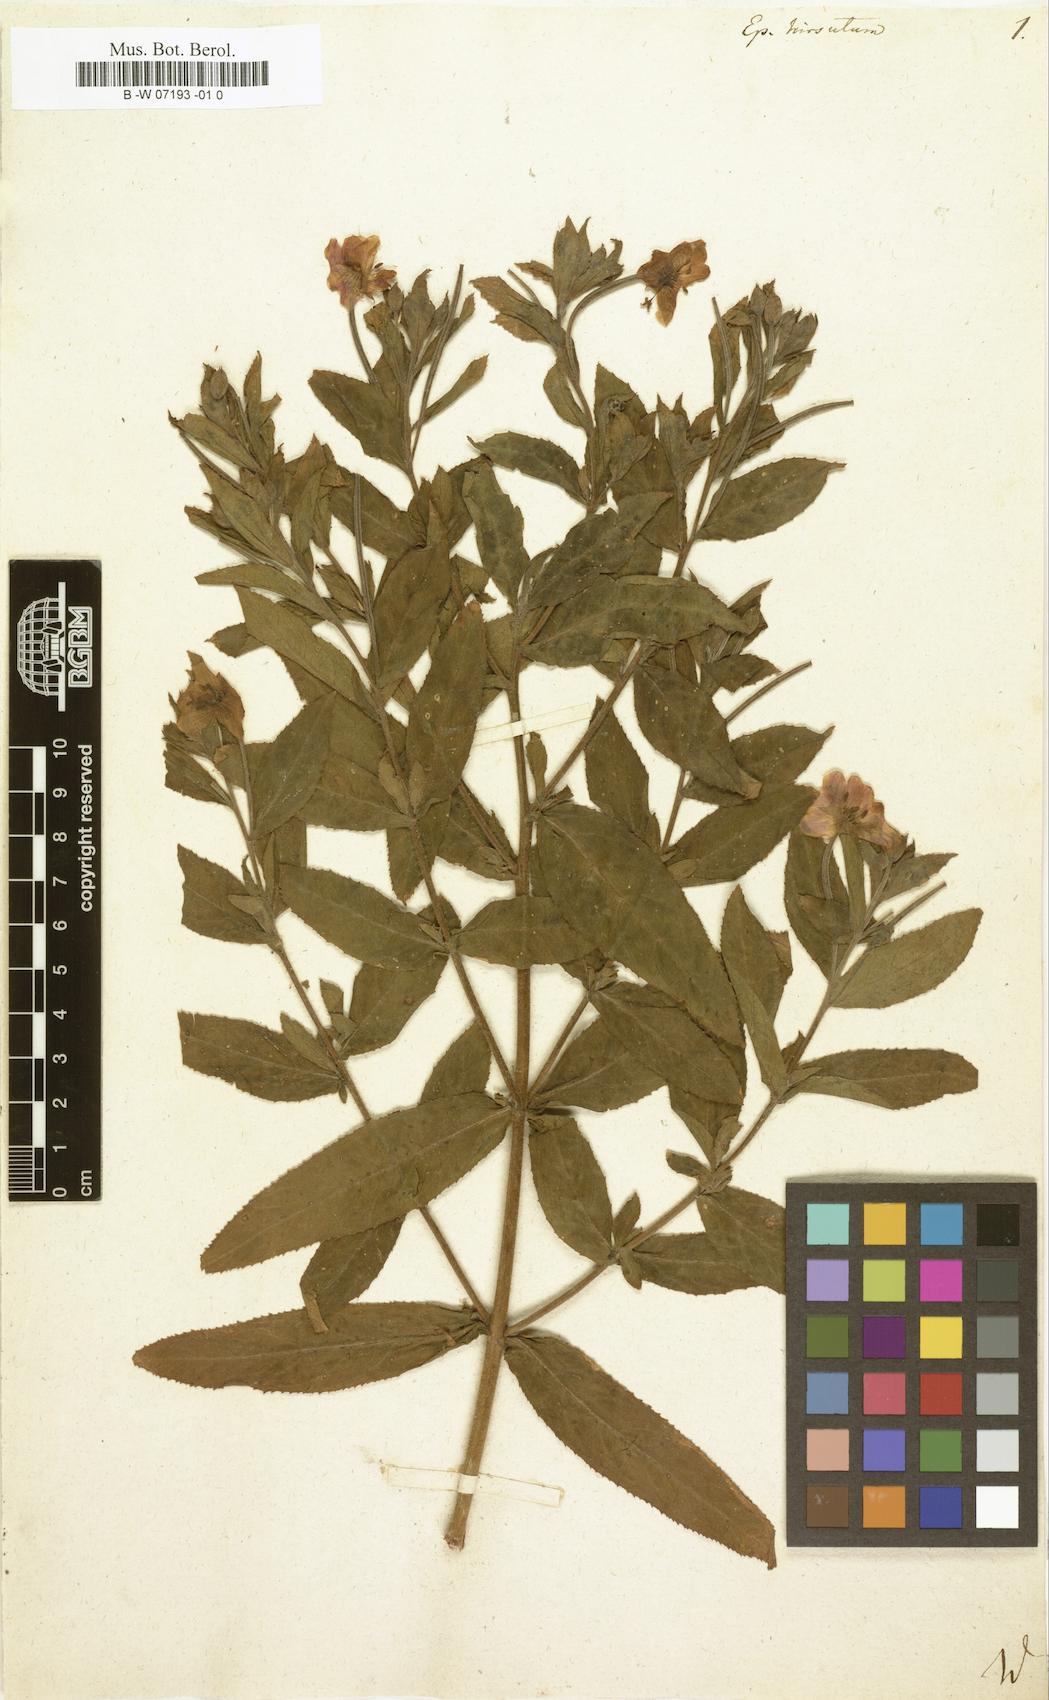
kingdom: Plantae
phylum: Tracheophyta
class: Magnoliopsida
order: Myrtales
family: Onagraceae
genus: Epilobium
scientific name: Epilobium hirsutum
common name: Great willowherb
